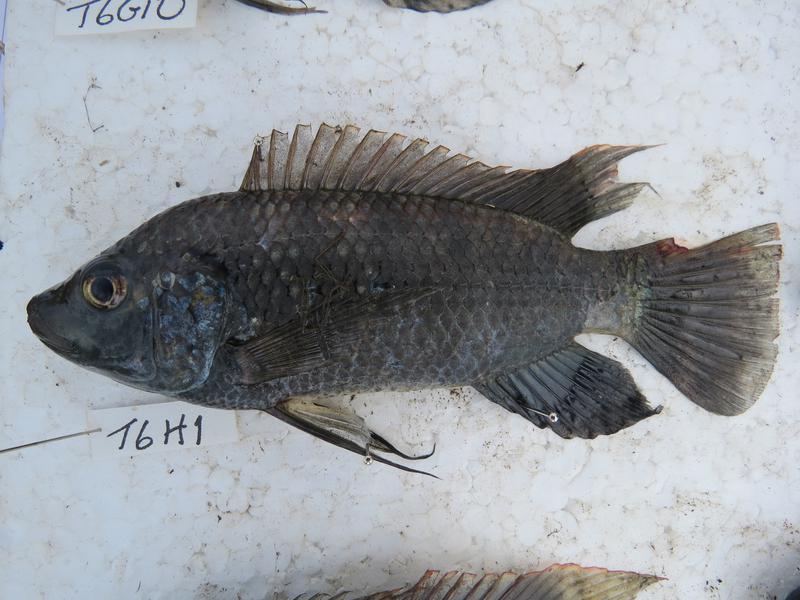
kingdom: Animalia
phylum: Chordata
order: Perciformes
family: Cichlidae
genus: Oreochromis
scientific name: Oreochromis urolepis
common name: Wami tilapia
